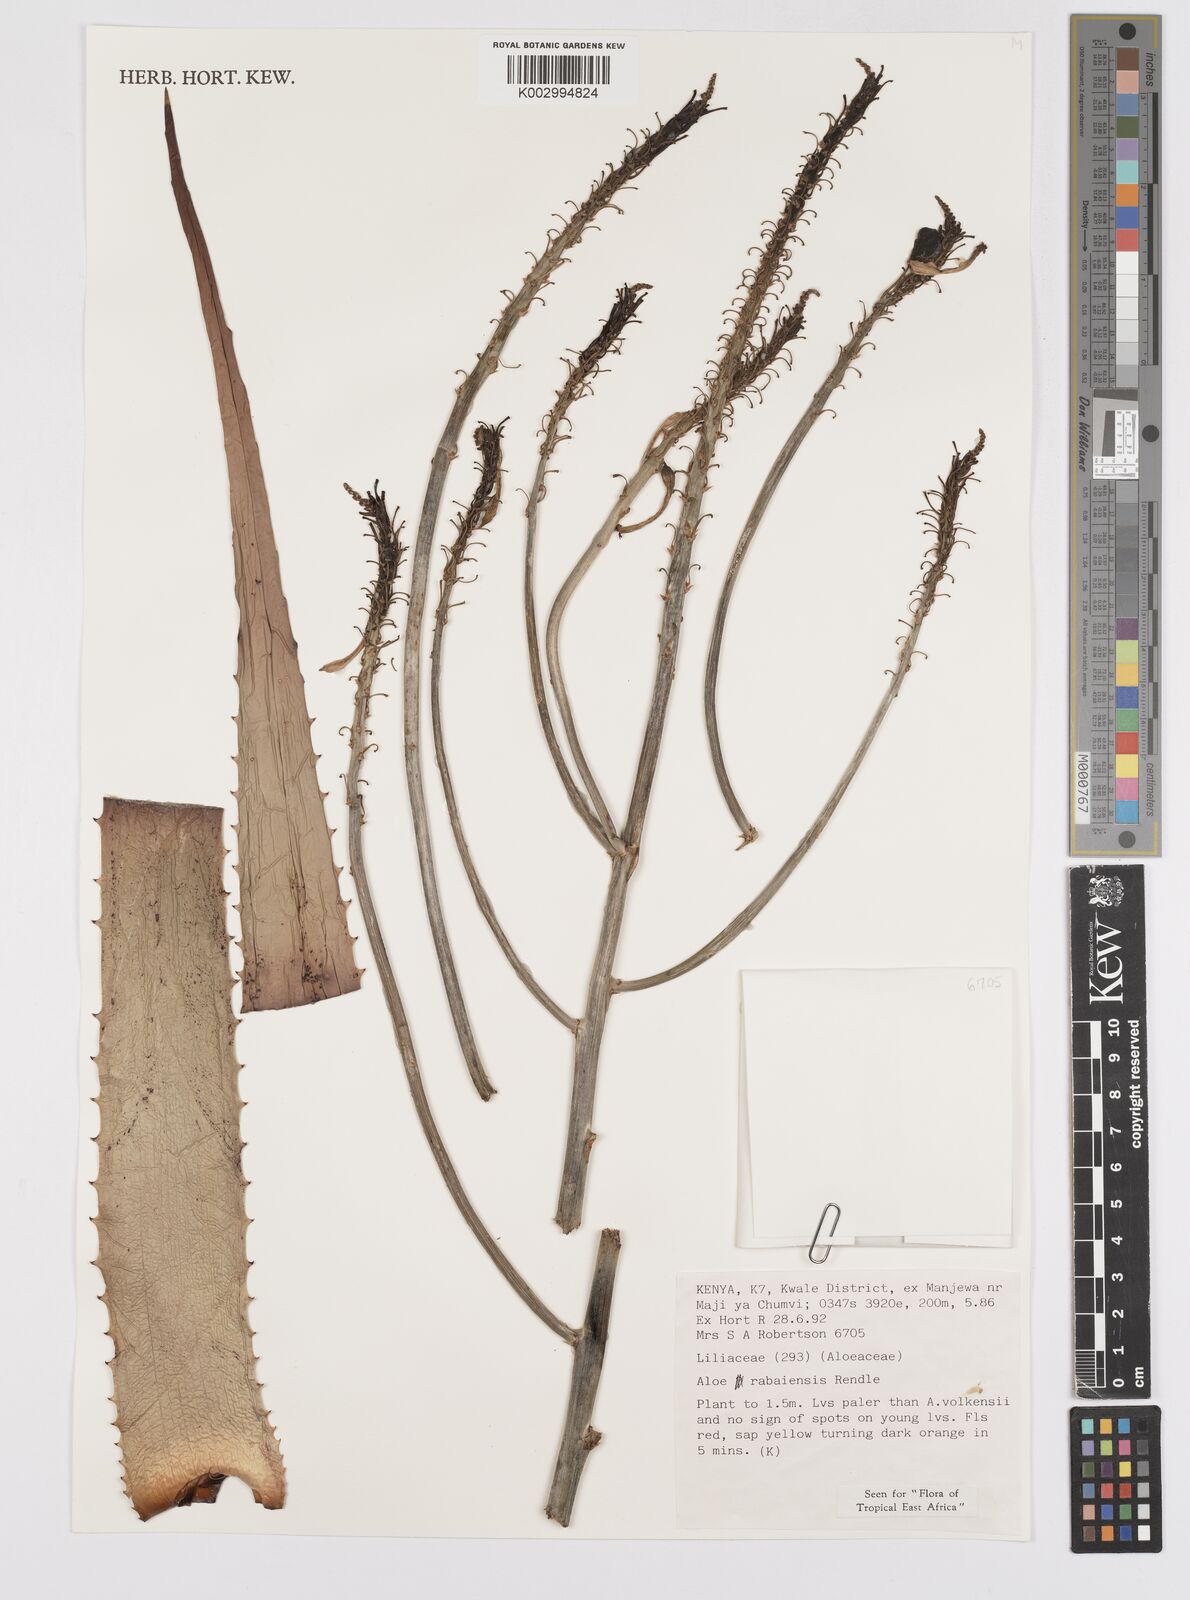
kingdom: Plantae
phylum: Tracheophyta
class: Liliopsida
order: Asparagales
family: Asphodelaceae
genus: Aloe
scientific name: Aloe rabaiensis
